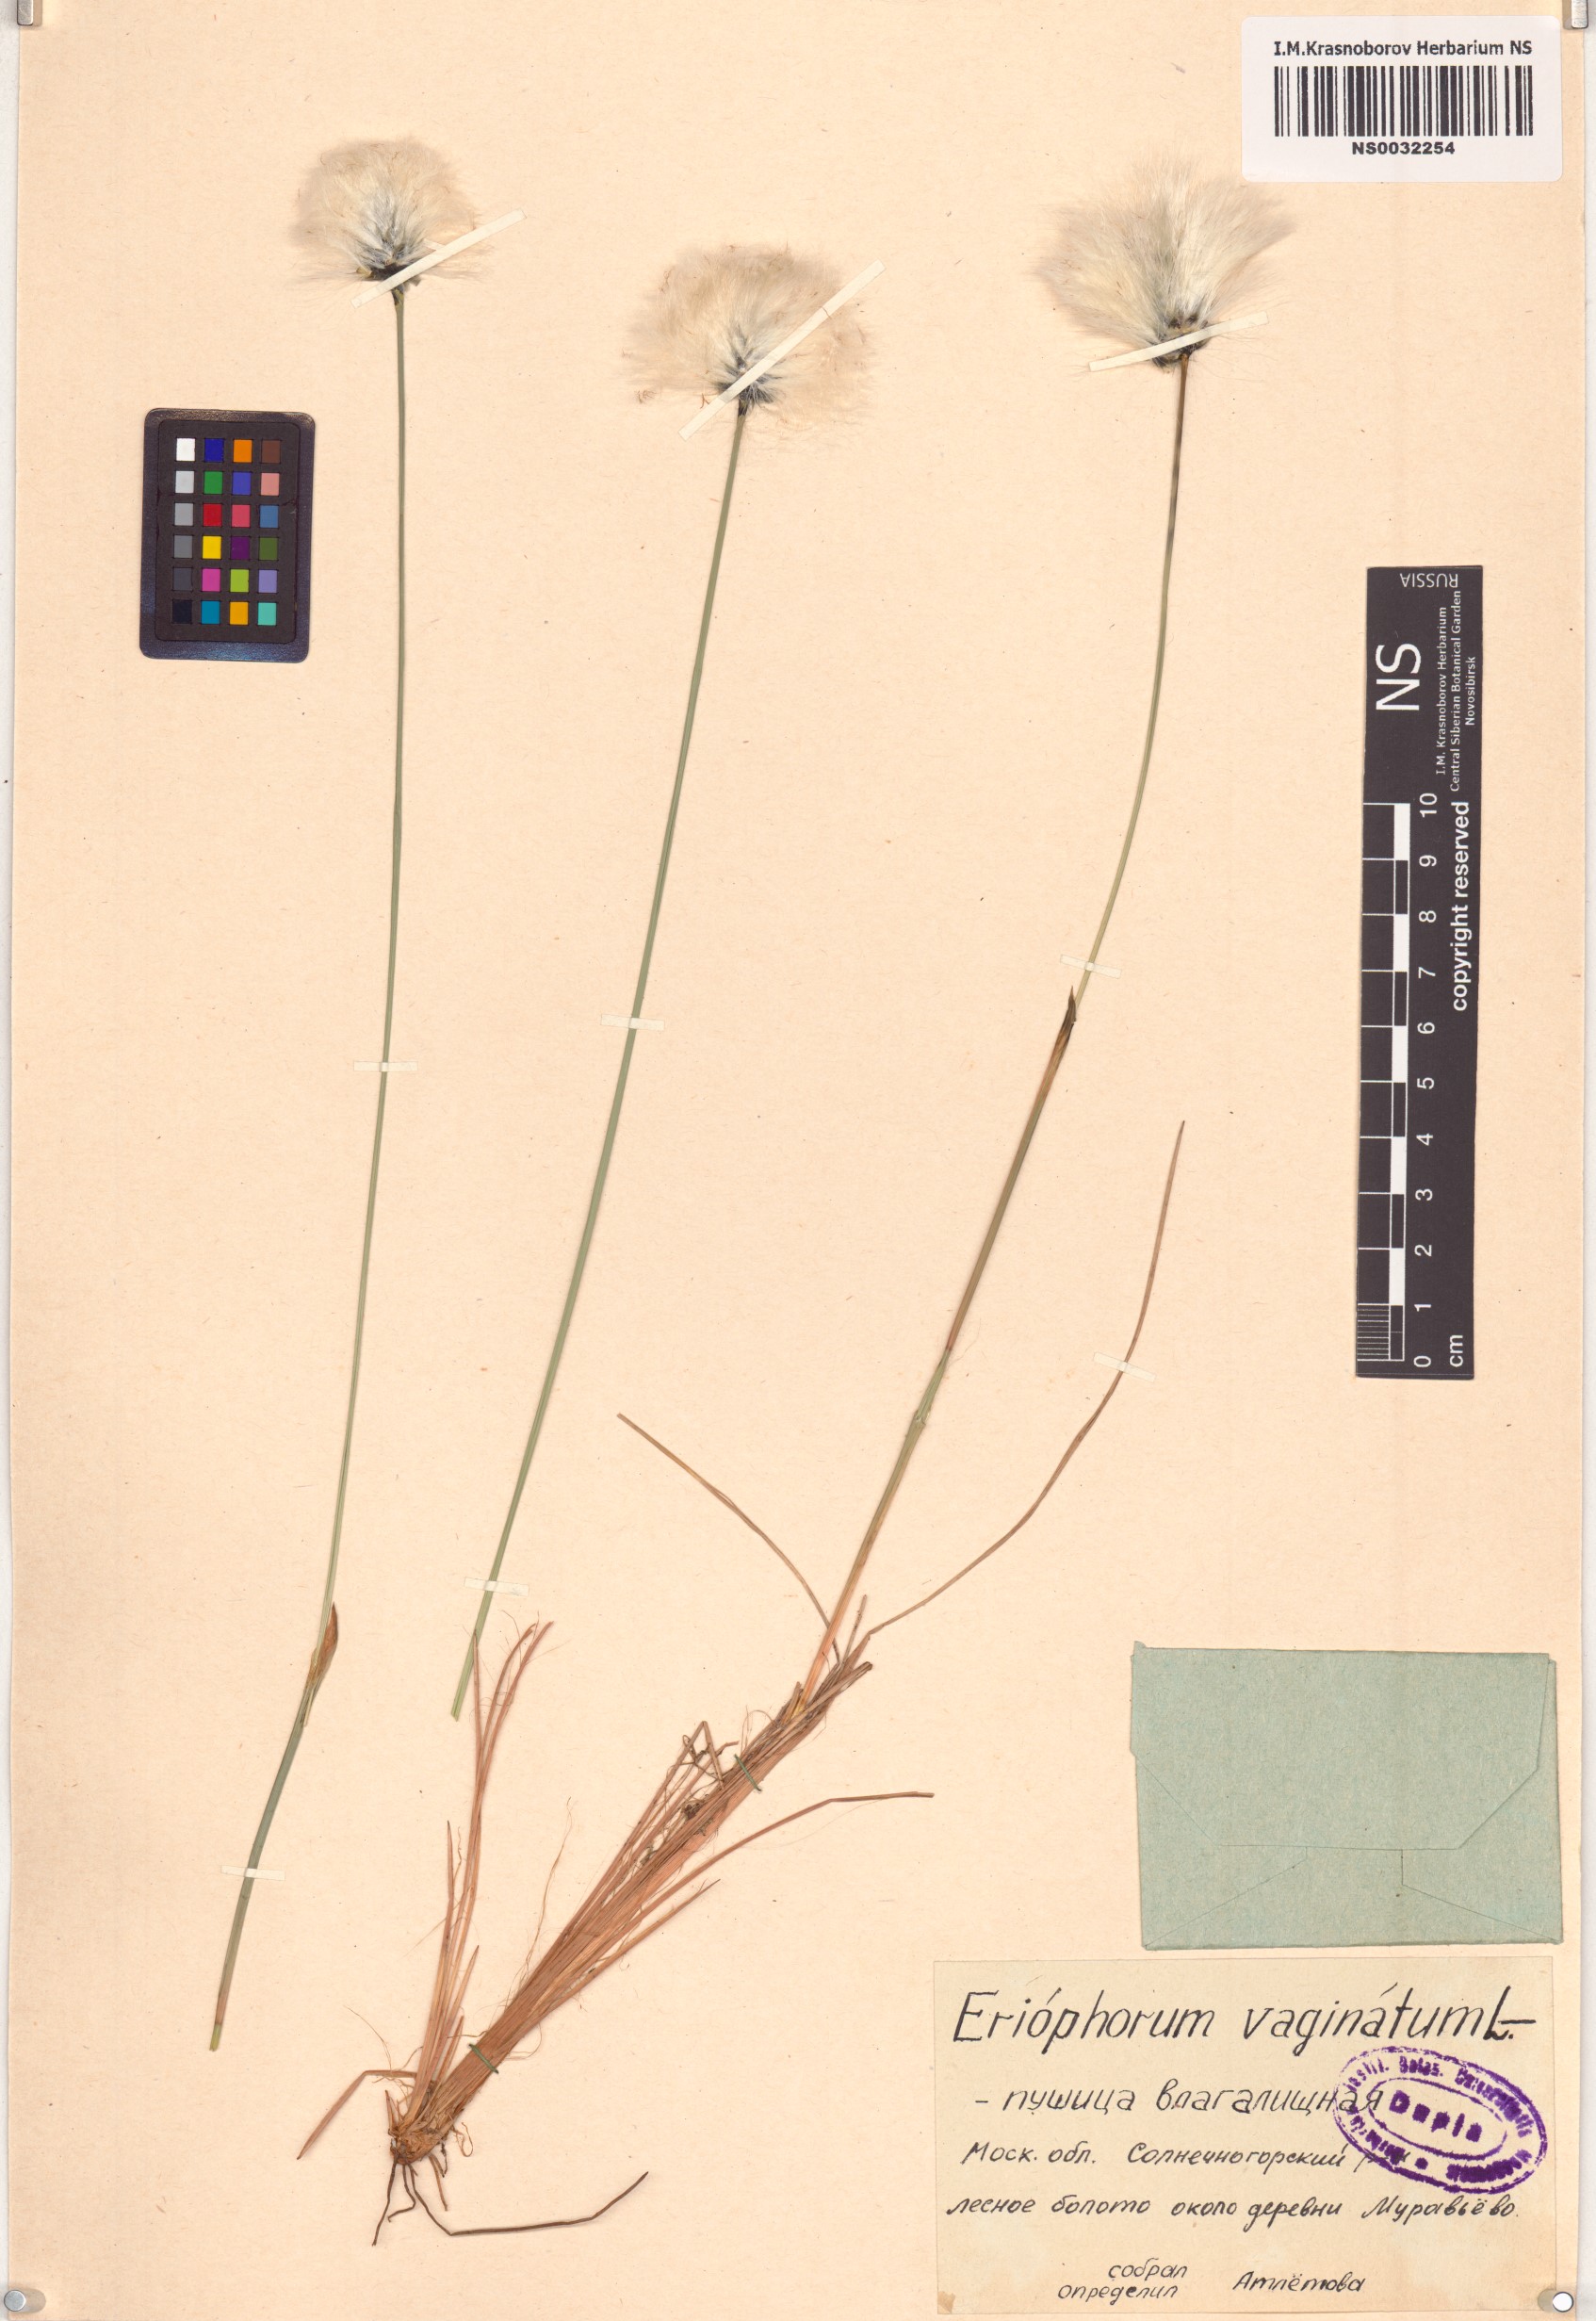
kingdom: Plantae
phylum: Tracheophyta
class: Liliopsida
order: Poales
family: Cyperaceae
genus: Eriophorum
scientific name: Eriophorum vaginatum
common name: Hare's-tail cottongrass
